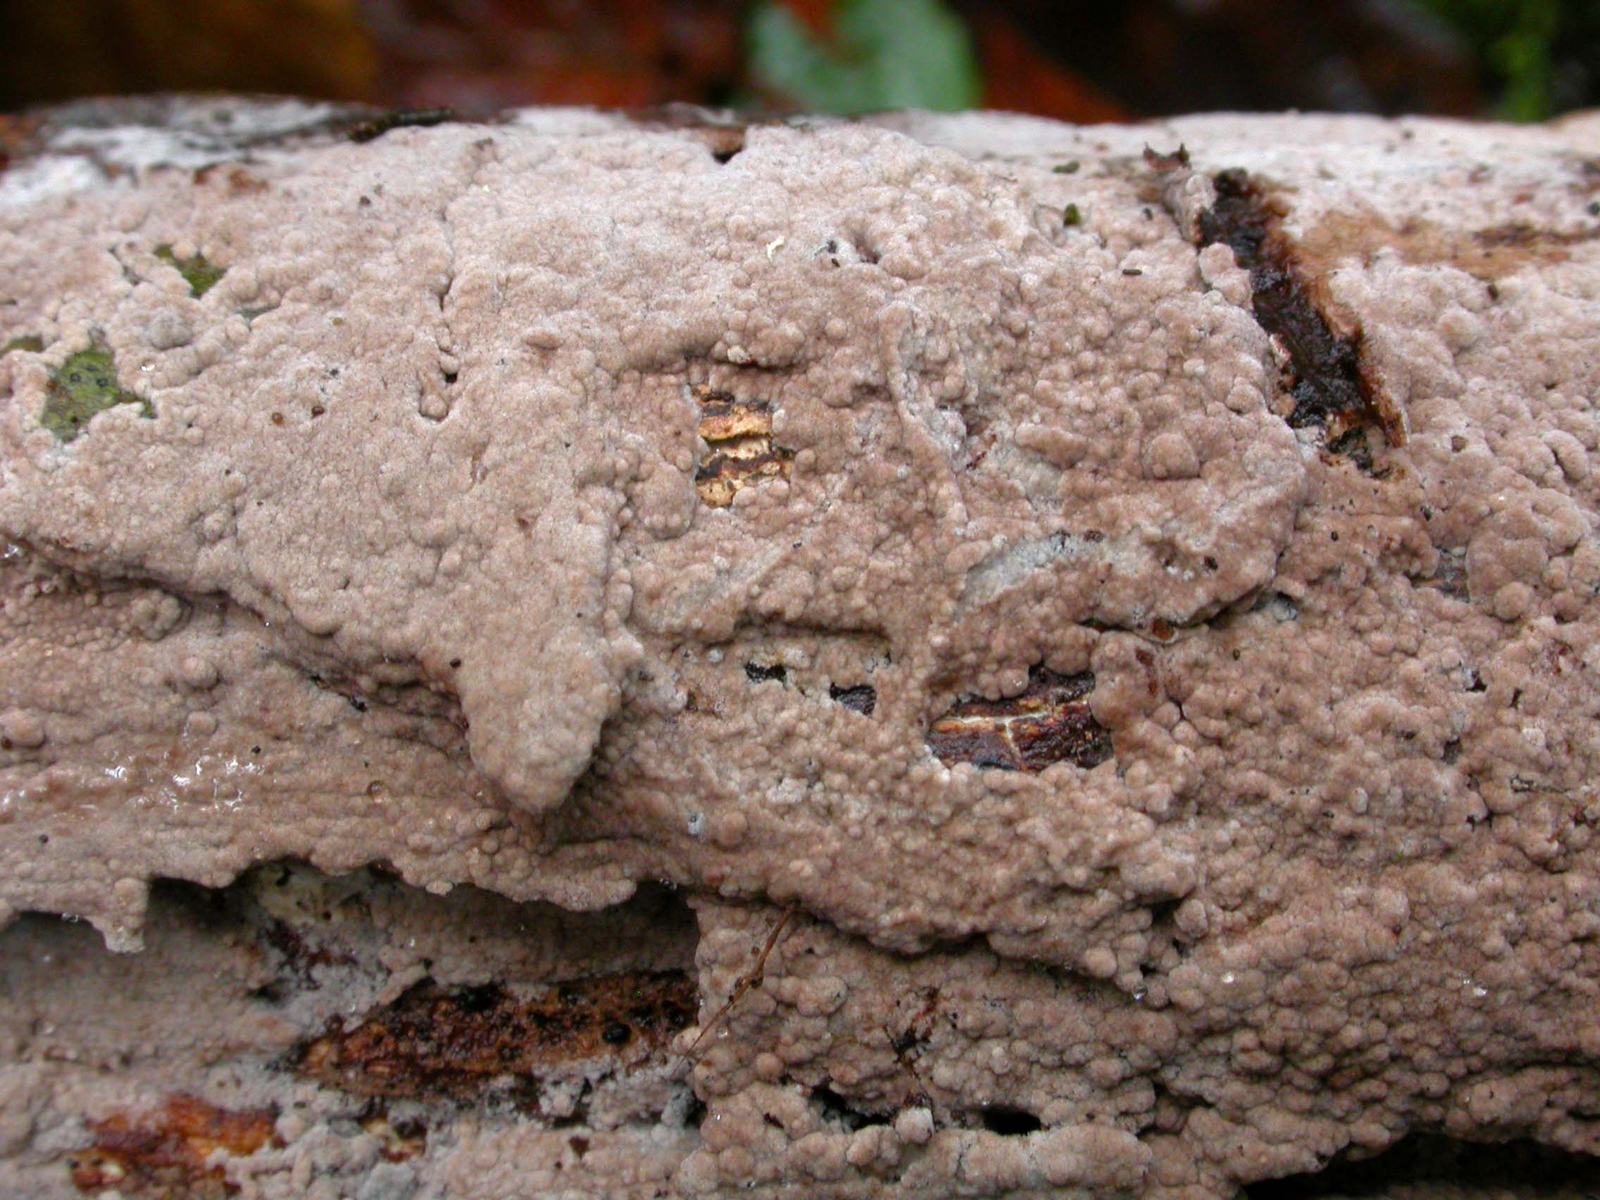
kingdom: Fungi
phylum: Basidiomycota
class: Agaricomycetes
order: Thelephorales
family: Thelephoraceae
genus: Thelephora
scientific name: Thelephora terrestris
